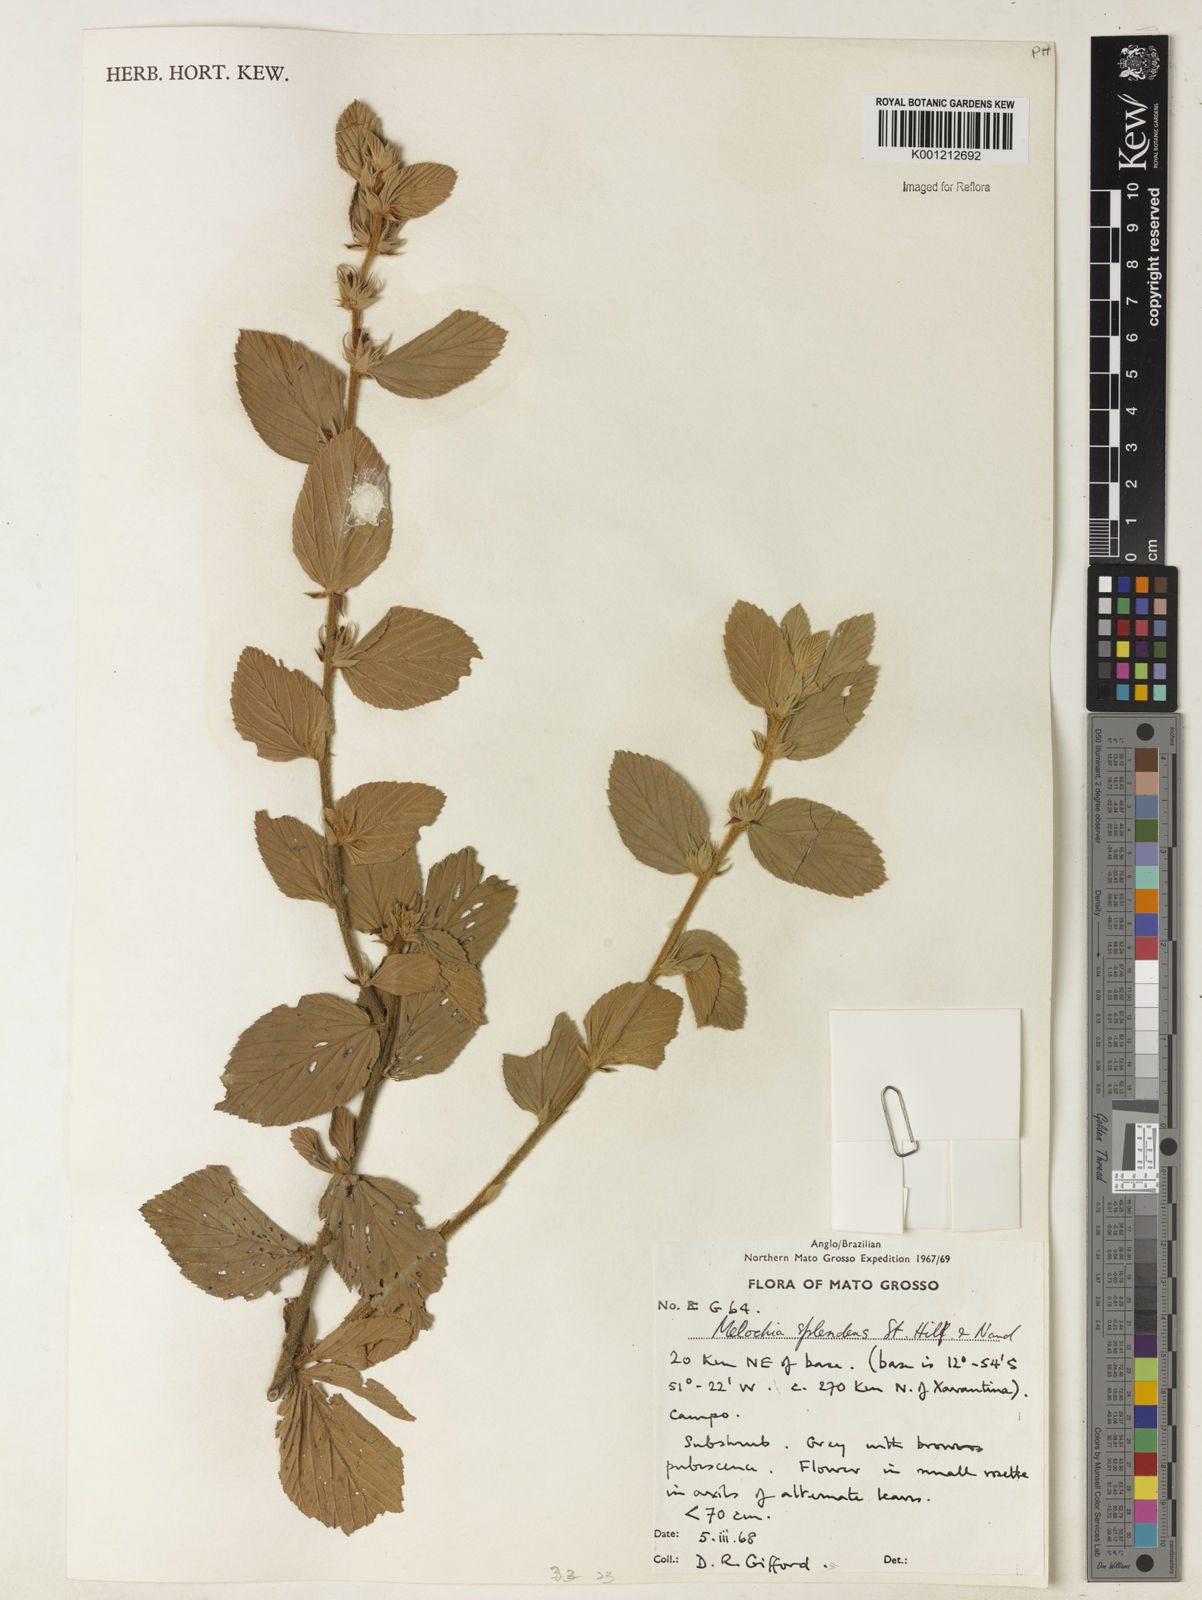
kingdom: Plantae
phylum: Tracheophyta
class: Magnoliopsida
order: Malvales
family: Malvaceae
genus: Melochia
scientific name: Melochia splendens
